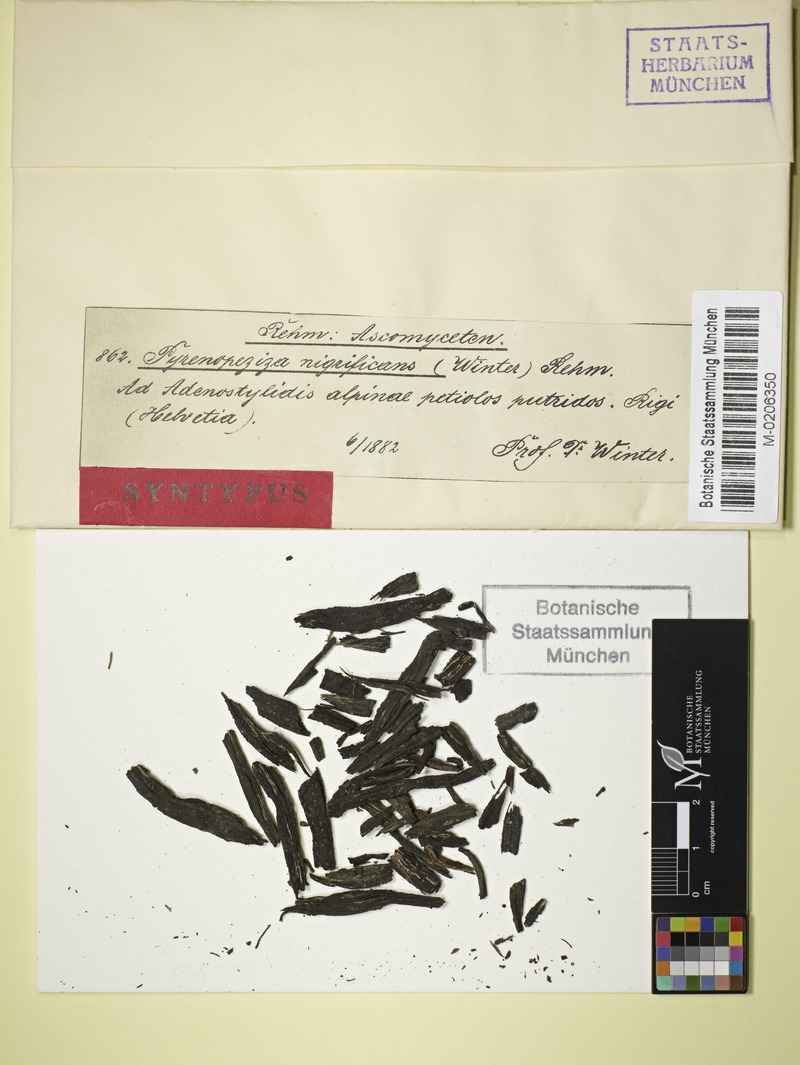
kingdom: Fungi
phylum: Ascomycota
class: Leotiomycetes
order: Helotiales
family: Mollisiaceae
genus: Tapesia
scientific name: Tapesia nigrificans
